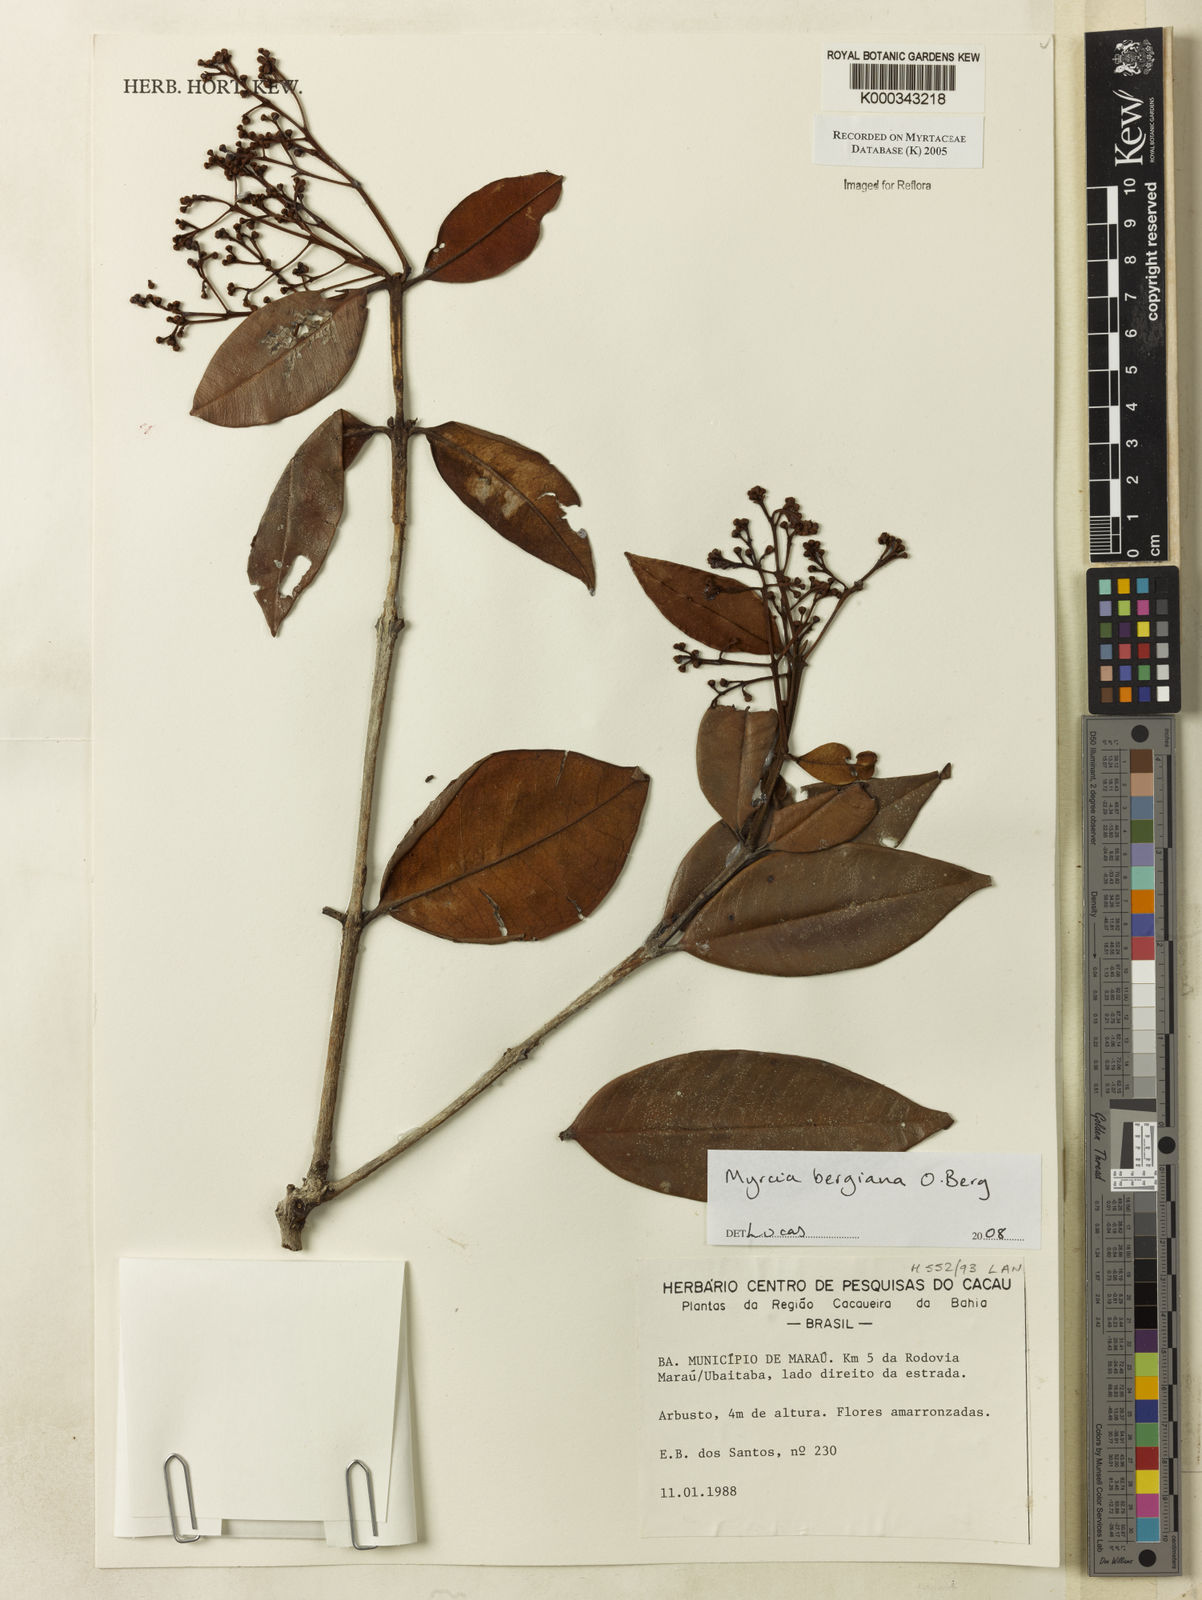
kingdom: Plantae
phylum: Tracheophyta
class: Magnoliopsida
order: Myrtales
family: Myrtaceae
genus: Myrcia
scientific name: Myrcia cuprea
